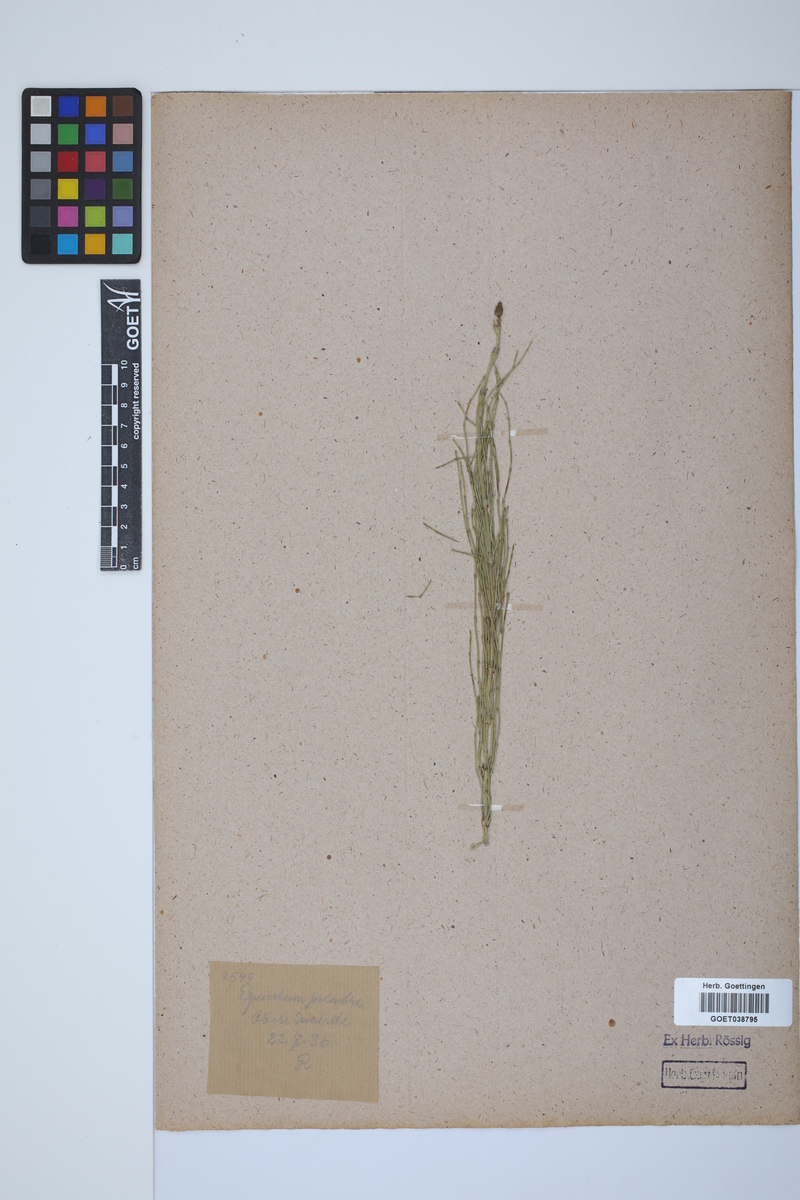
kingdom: Plantae
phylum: Tracheophyta
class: Polypodiopsida
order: Equisetales
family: Equisetaceae
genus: Equisetum
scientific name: Equisetum palustre
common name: Marsh horsetail
